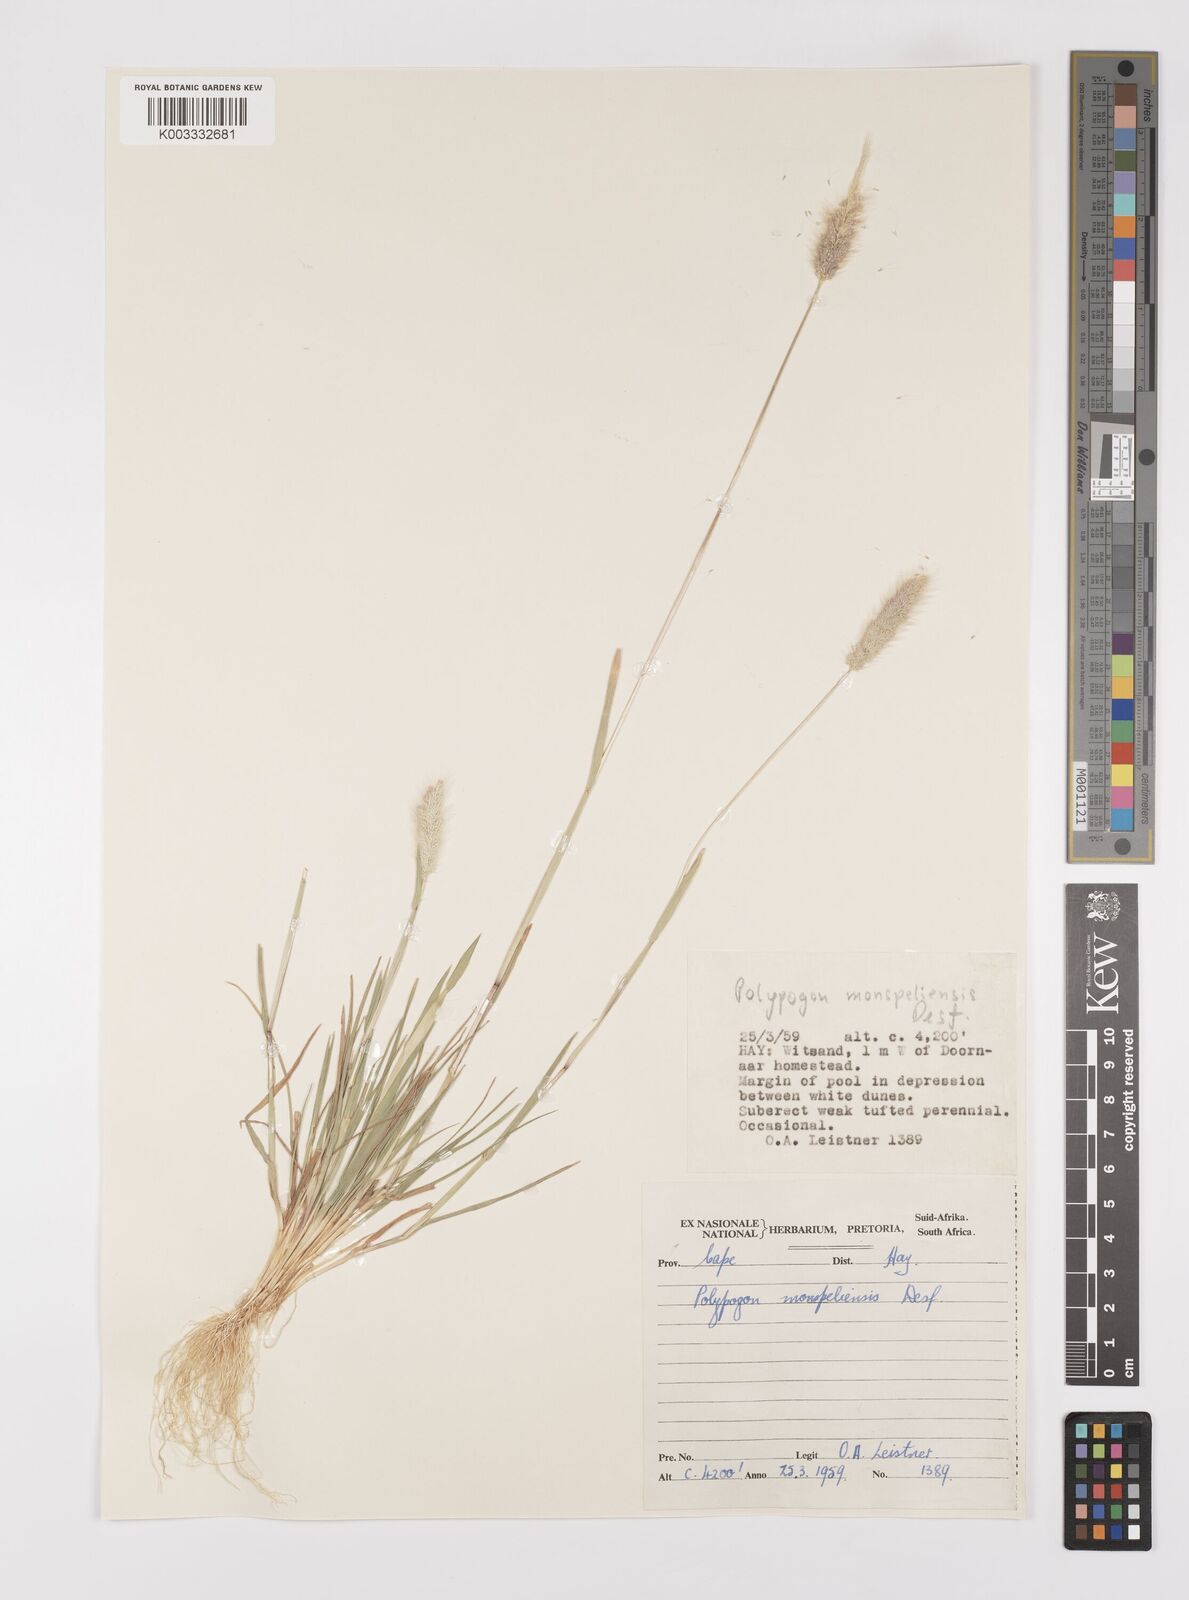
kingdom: Plantae
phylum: Tracheophyta
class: Liliopsida
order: Poales
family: Poaceae
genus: Polypogon
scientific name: Polypogon monspeliensis
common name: Annual rabbitsfoot grass
